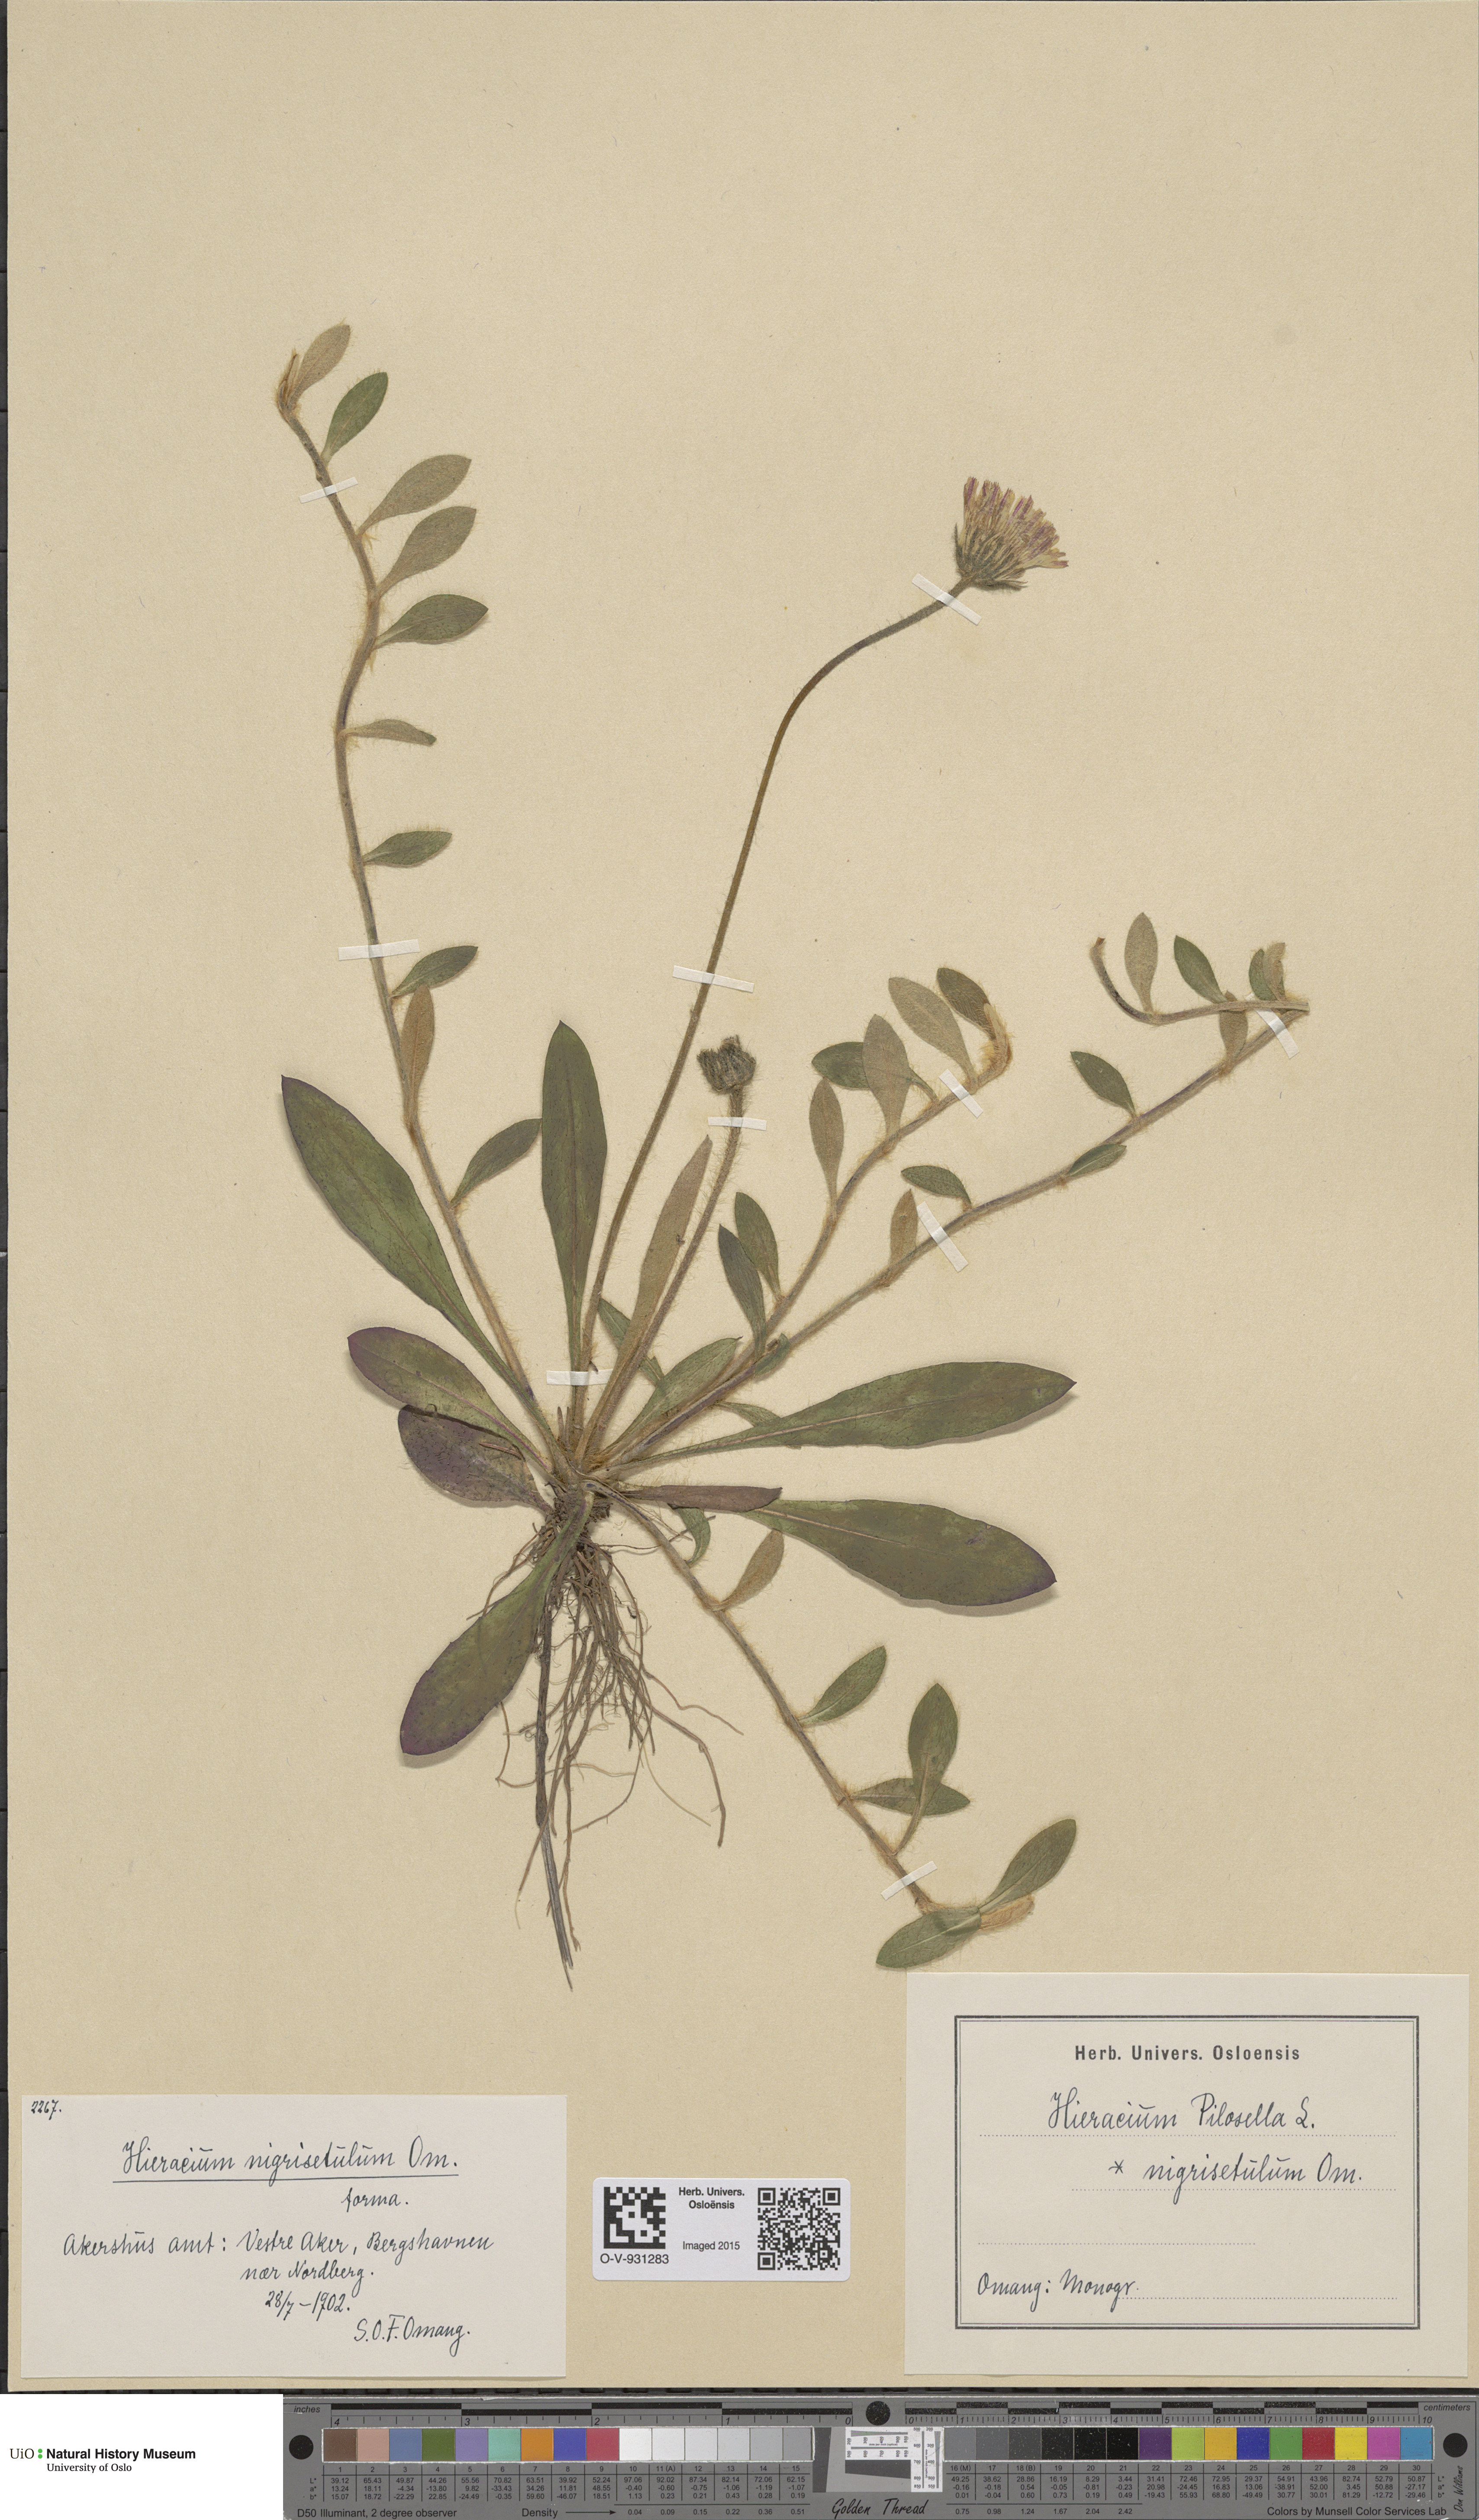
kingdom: Plantae
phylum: Tracheophyta
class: Magnoliopsida
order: Asterales
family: Asteraceae
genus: Pilosella
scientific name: Pilosella officinarum
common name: Mouse-ear hawkweed
